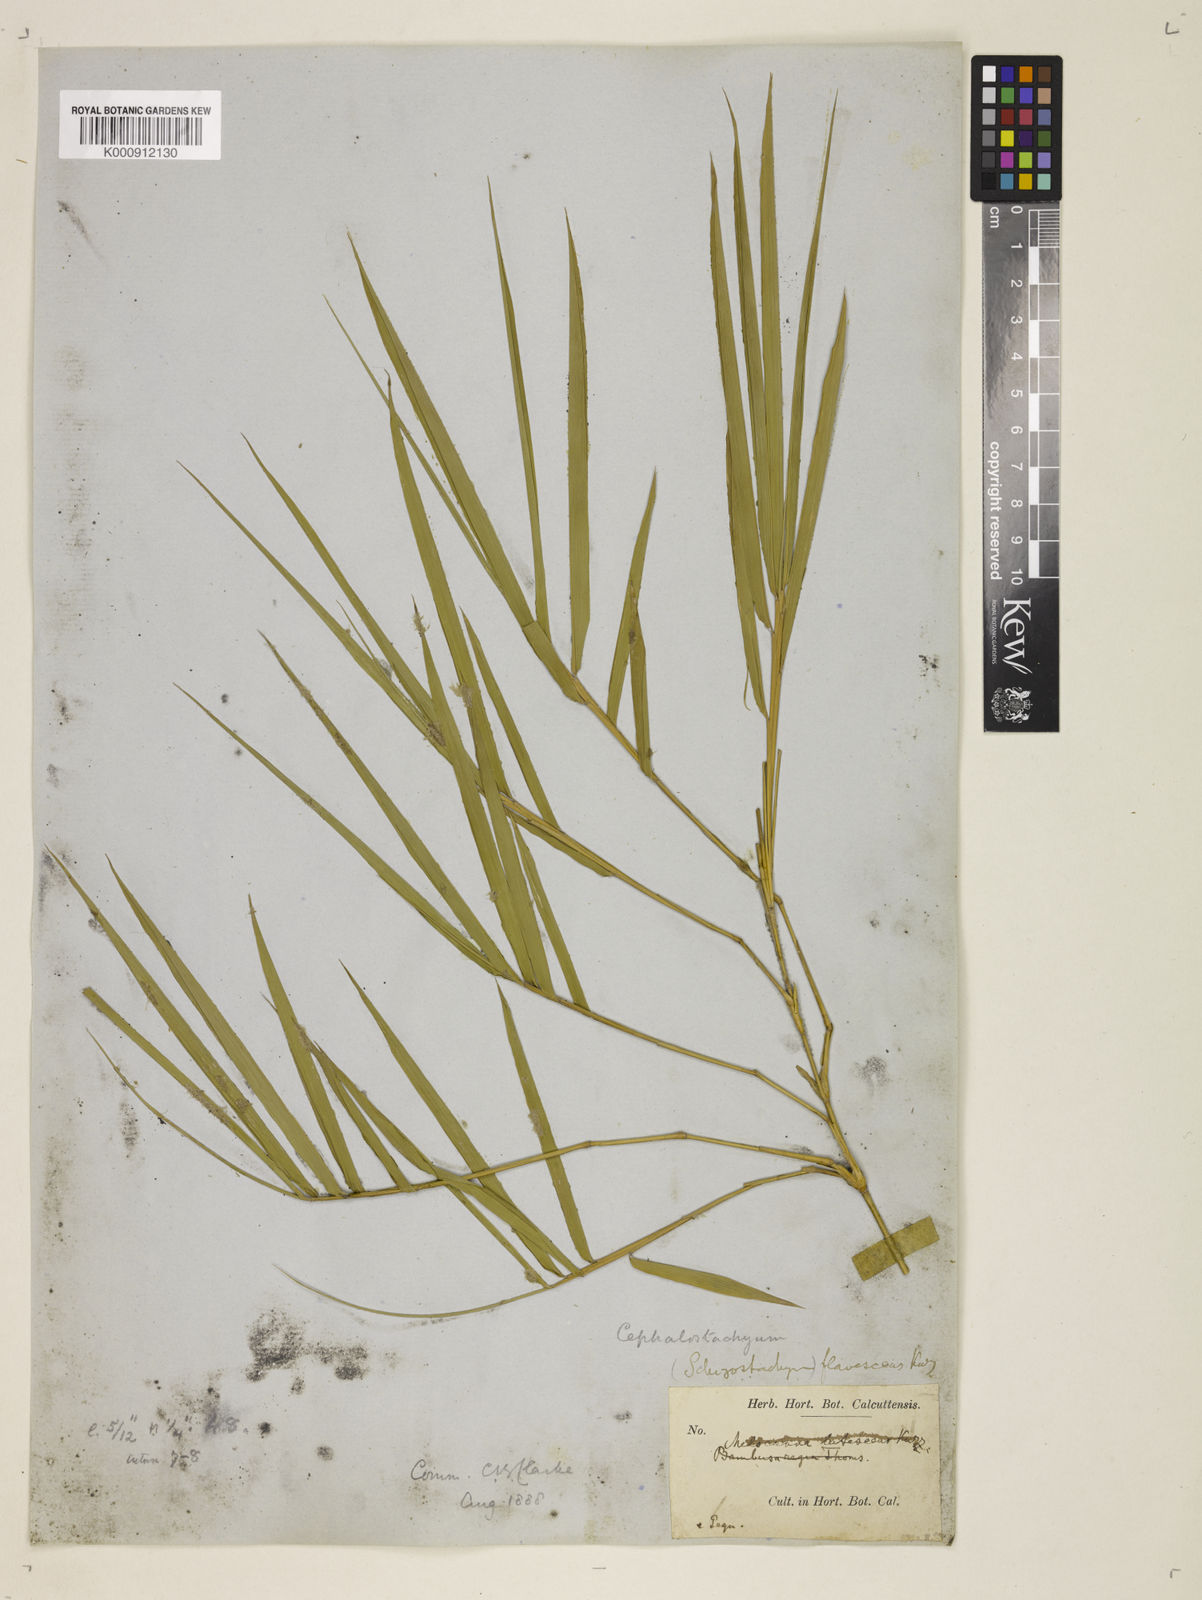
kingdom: Plantae
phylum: Tracheophyta
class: Liliopsida
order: Poales
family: Poaceae
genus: Cephalostachyum
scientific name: Cephalostachyum flavescens
